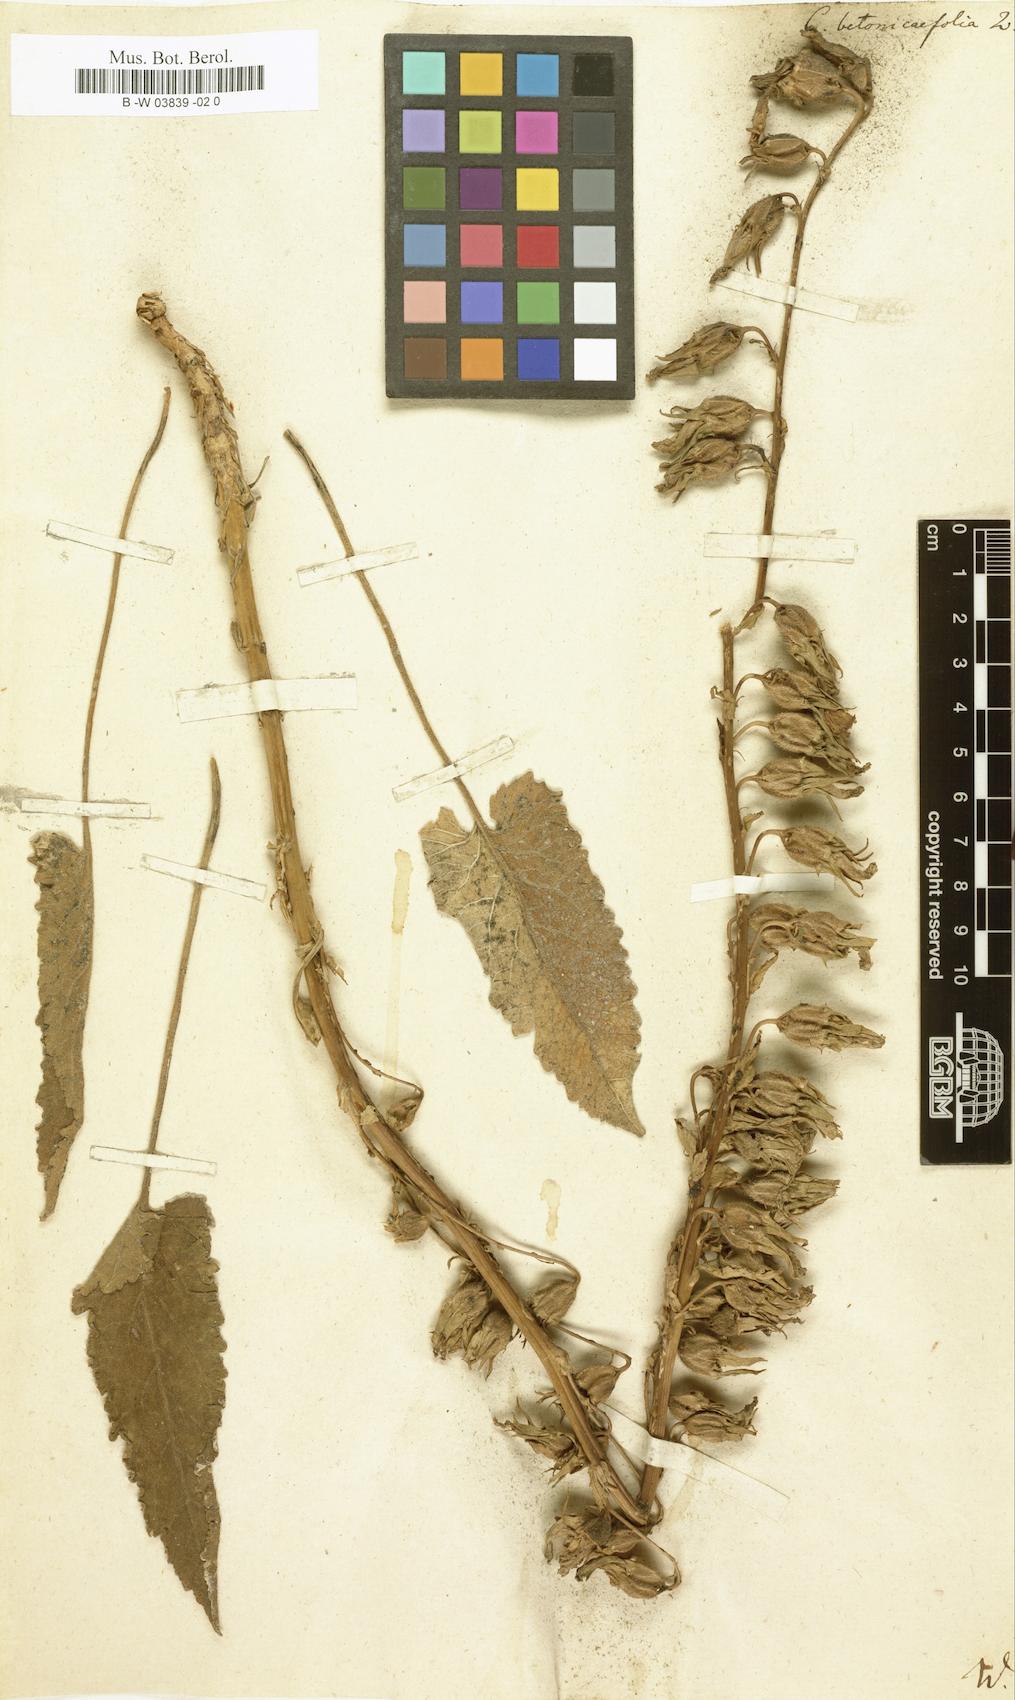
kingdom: Plantae
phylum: Tracheophyta
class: Magnoliopsida
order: Asterales
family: Campanulaceae
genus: Campanula
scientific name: Campanula betonicifolia
